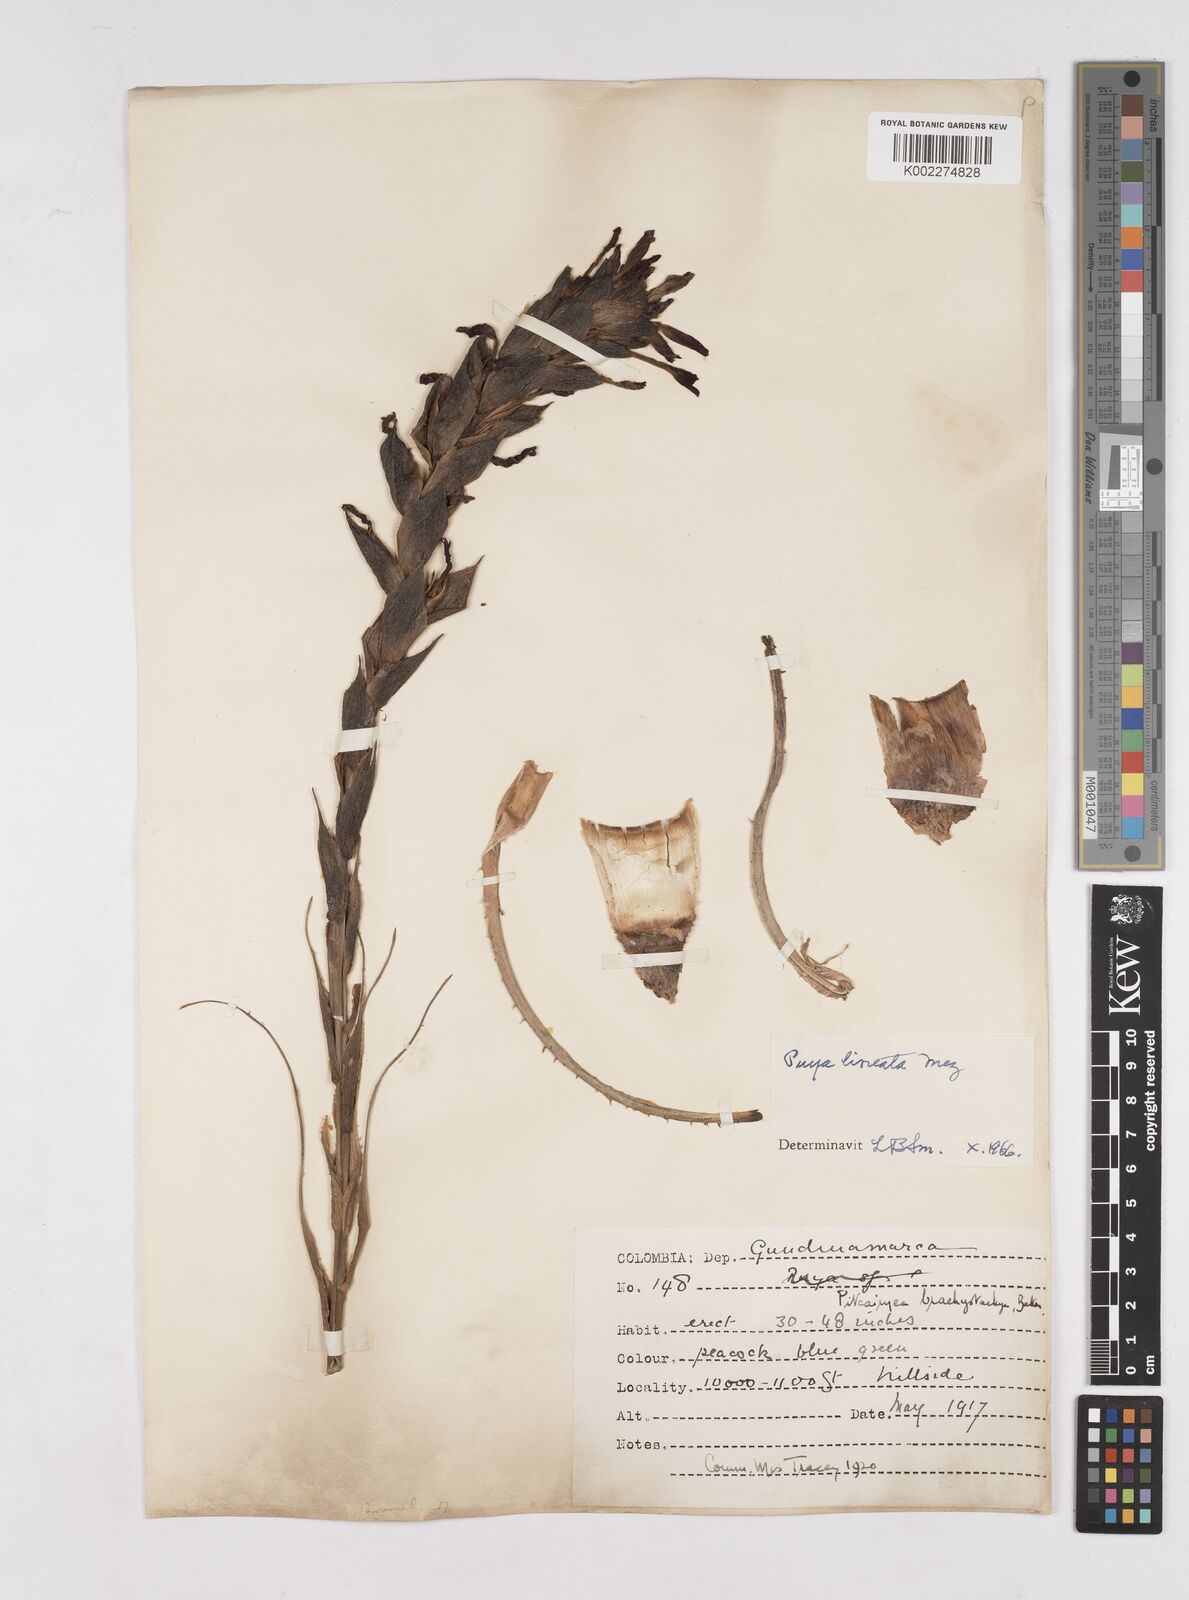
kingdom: Plantae
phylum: Tracheophyta
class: Liliopsida
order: Poales
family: Bromeliaceae
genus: Puya
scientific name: Puya lineata
